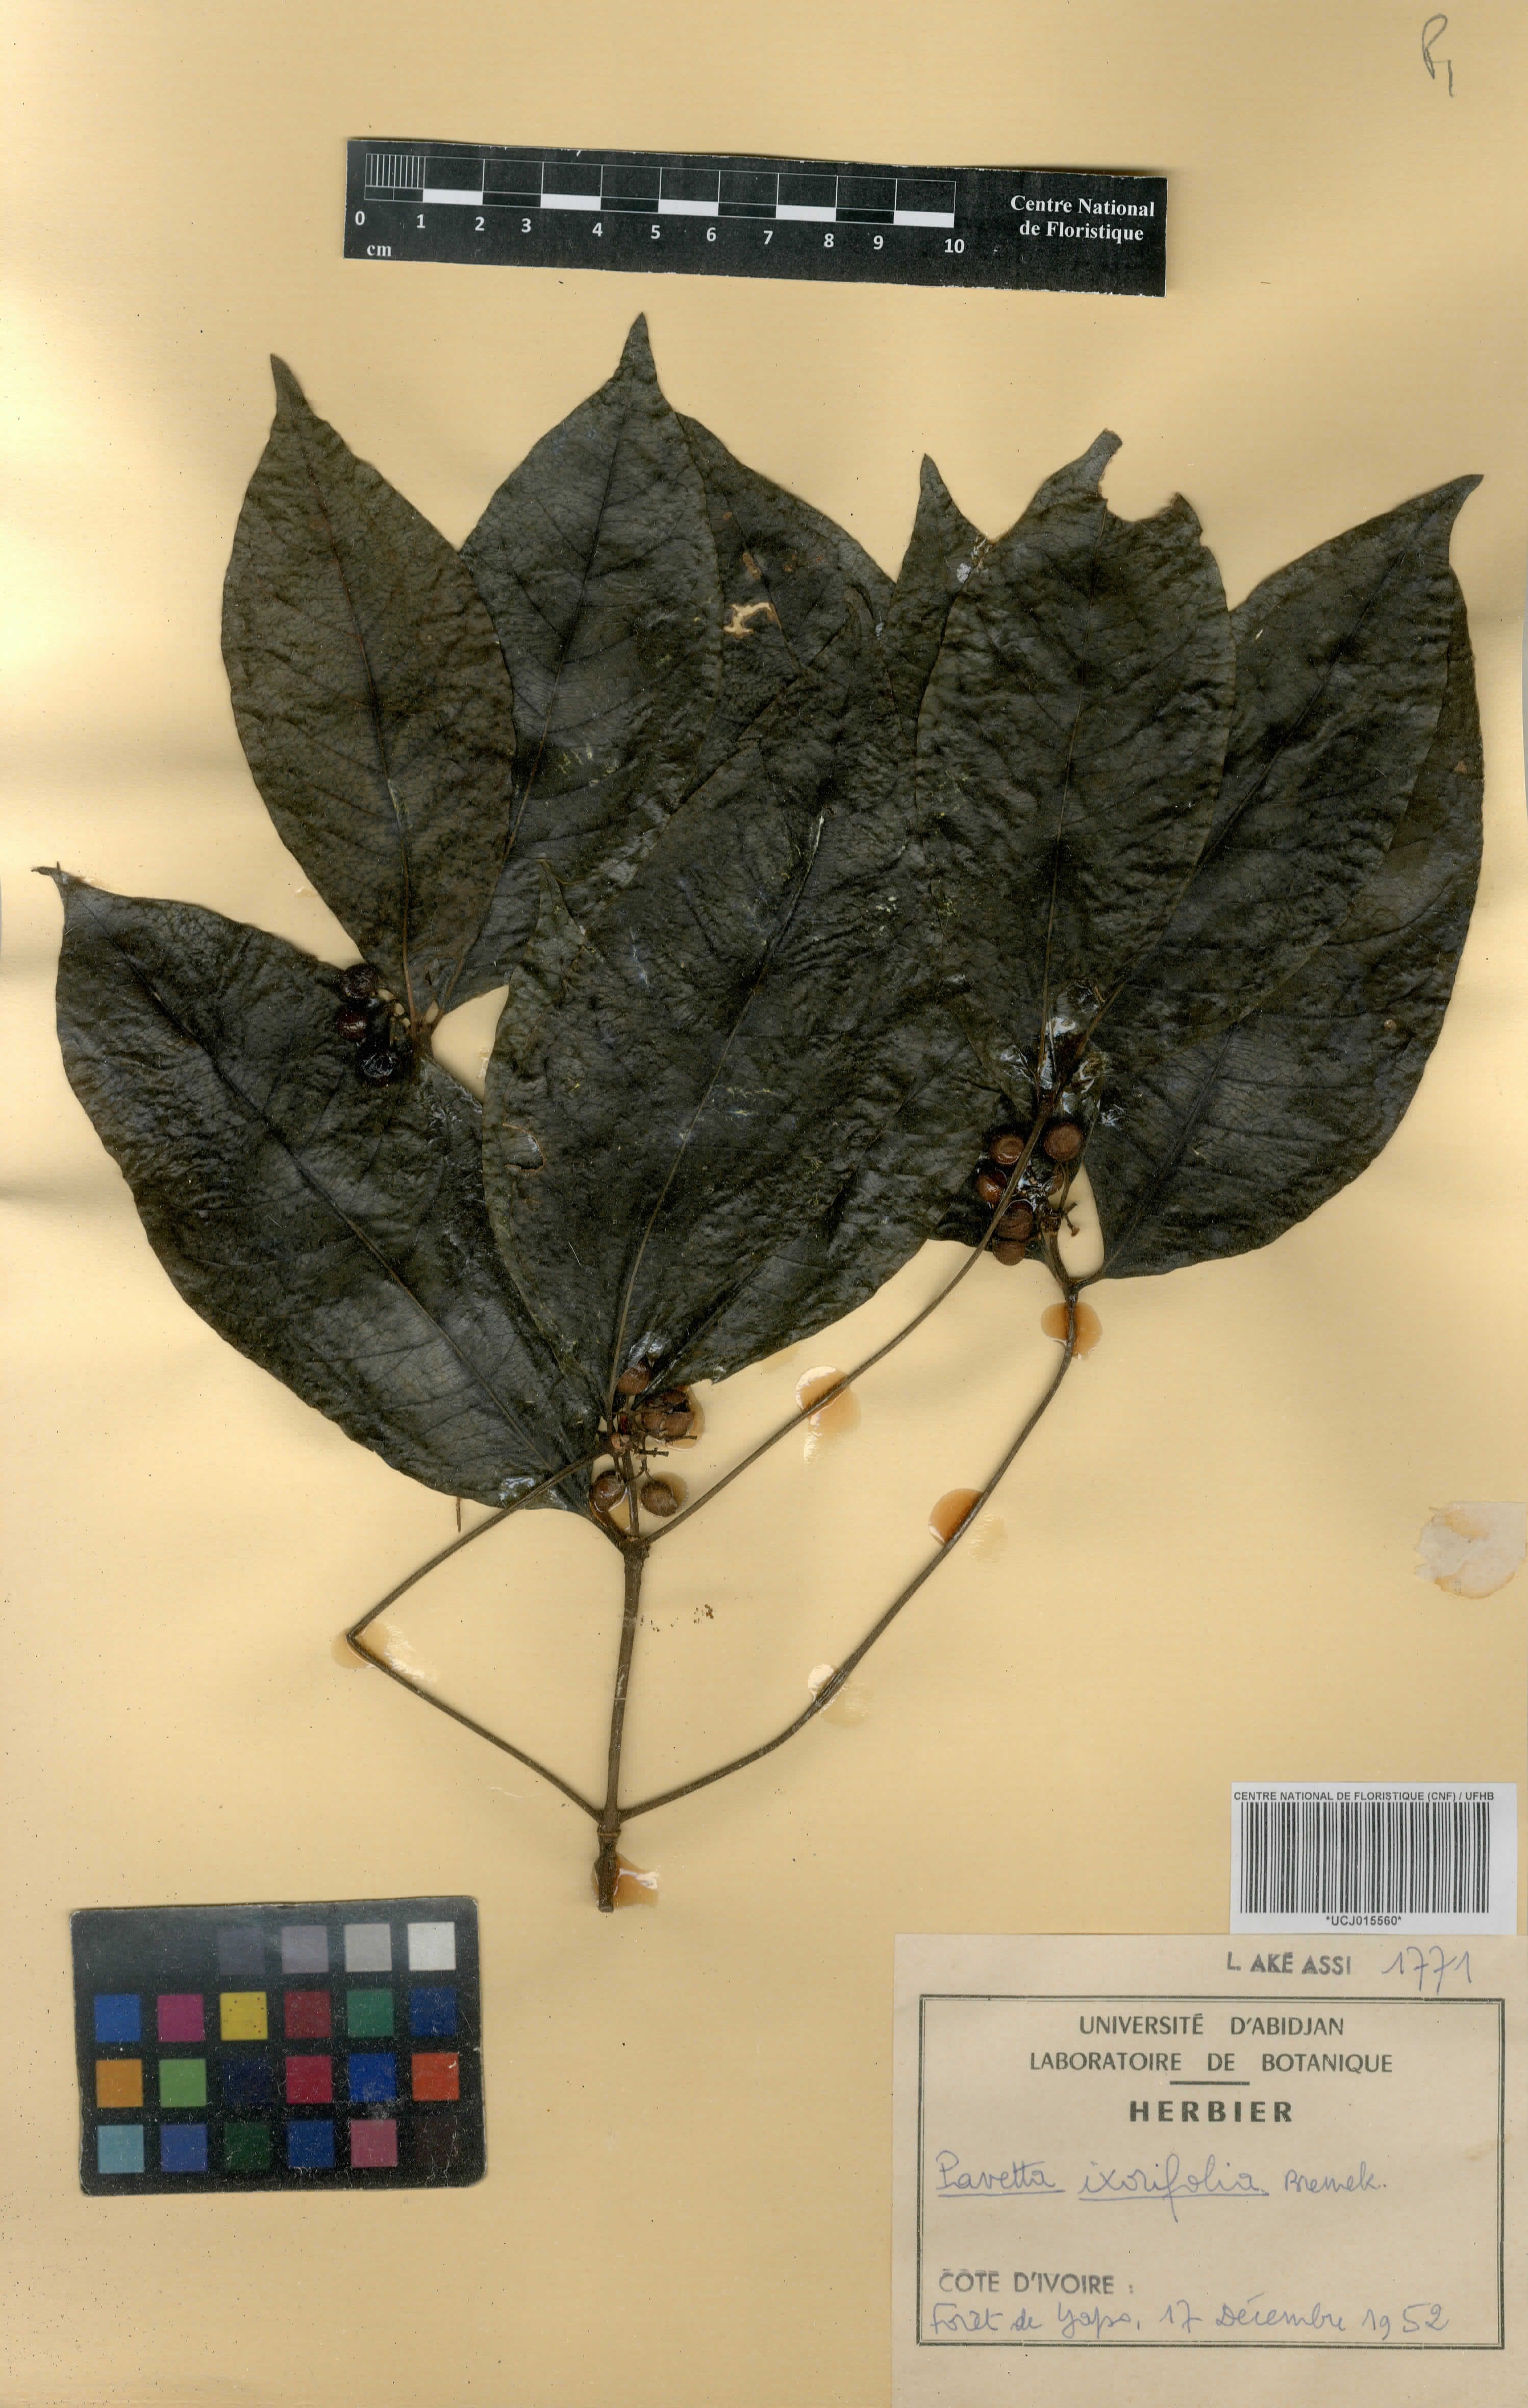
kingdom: Plantae
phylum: Tracheophyta
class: Magnoliopsida
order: Gentianales
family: Rubiaceae
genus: Pavetta
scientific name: Pavetta ixorifolia
